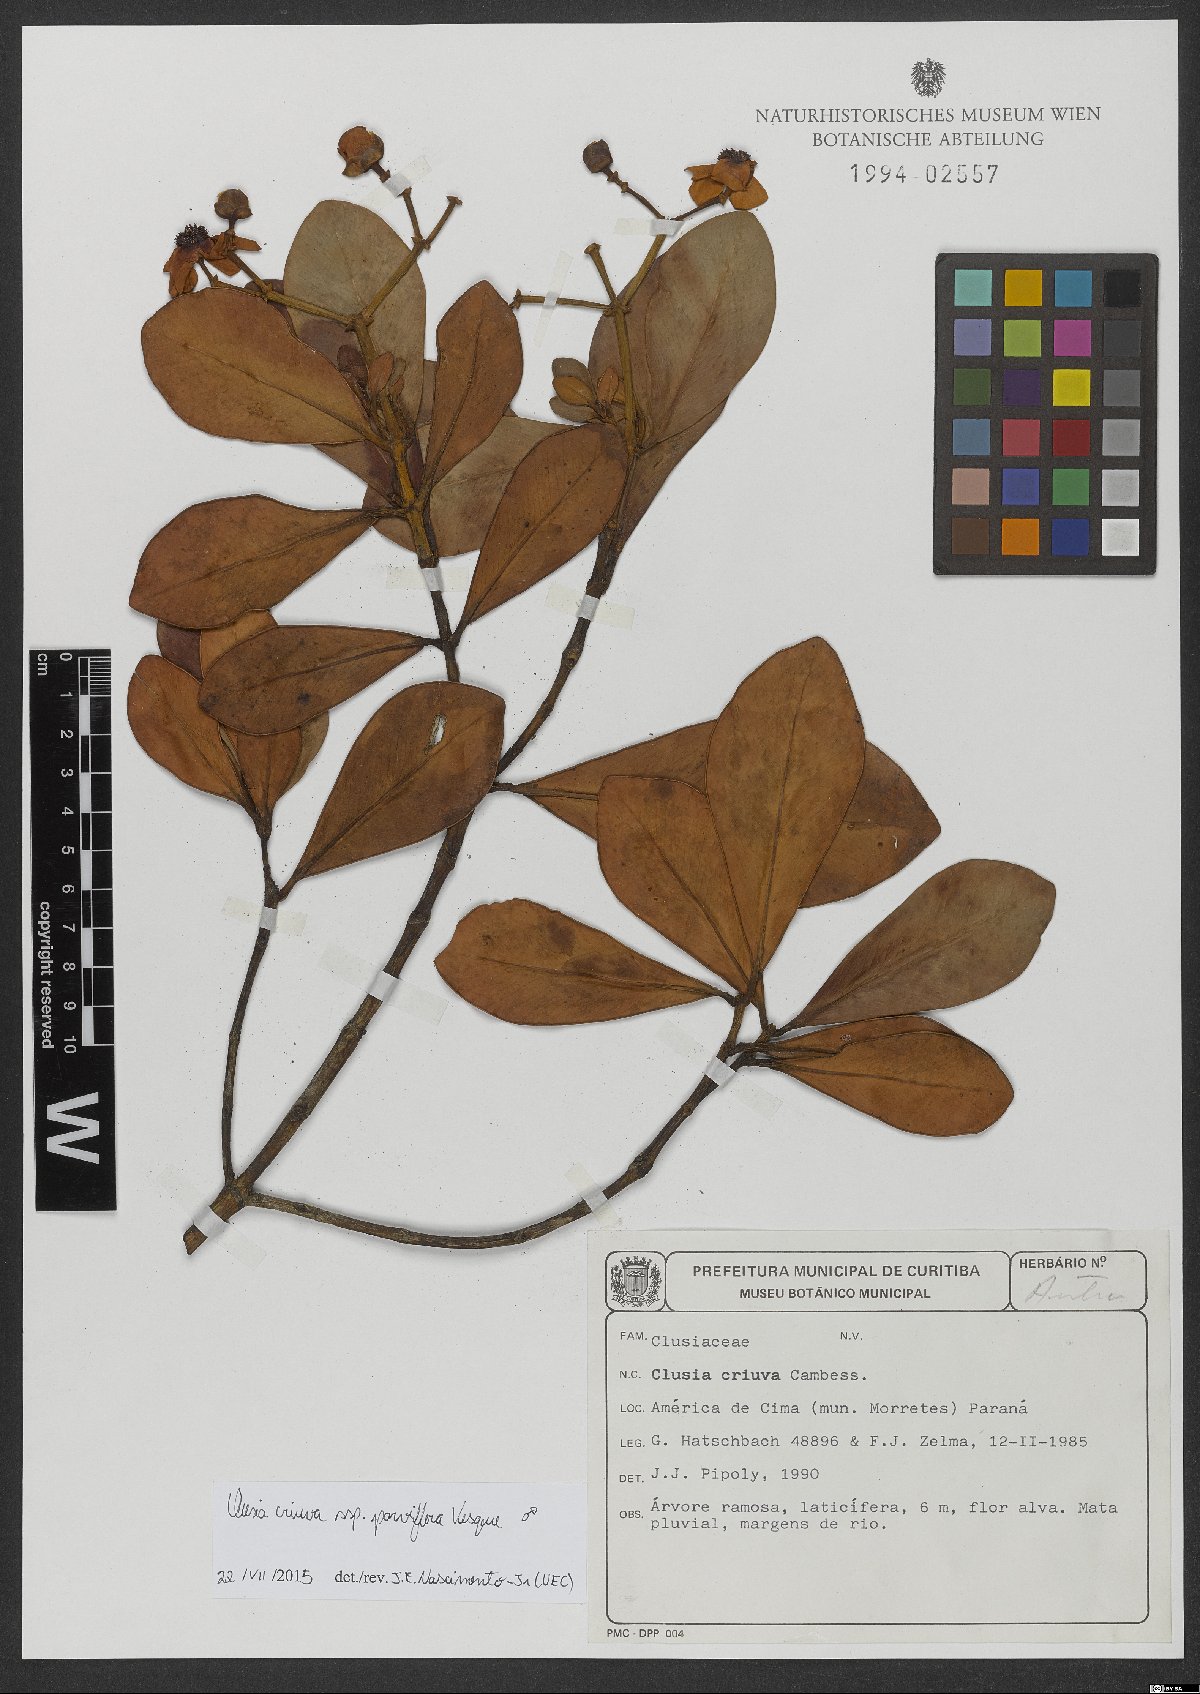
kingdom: Plantae
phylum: Tracheophyta
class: Magnoliopsida
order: Malpighiales
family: Clusiaceae
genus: Clusia
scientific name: Clusia criuva
